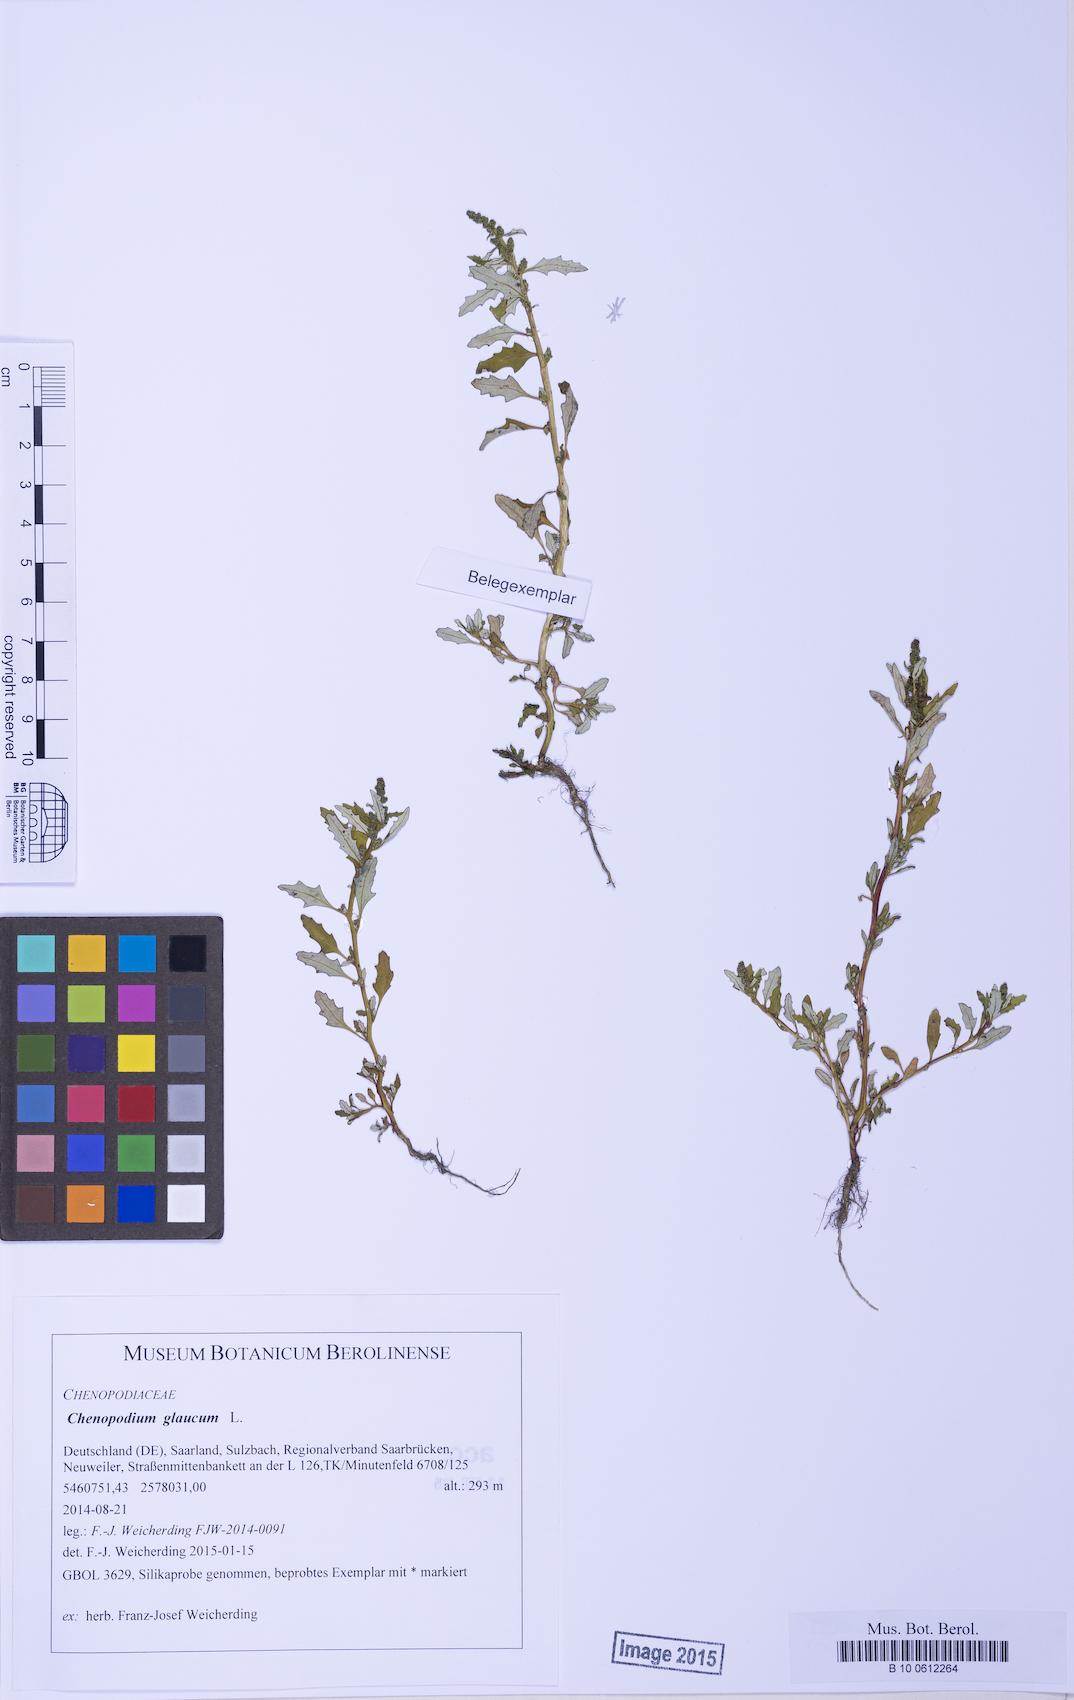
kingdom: Plantae
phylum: Tracheophyta
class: Magnoliopsida
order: Caryophyllales
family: Amaranthaceae
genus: Oxybasis
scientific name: Oxybasis glauca
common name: Glaucous goosefoot
